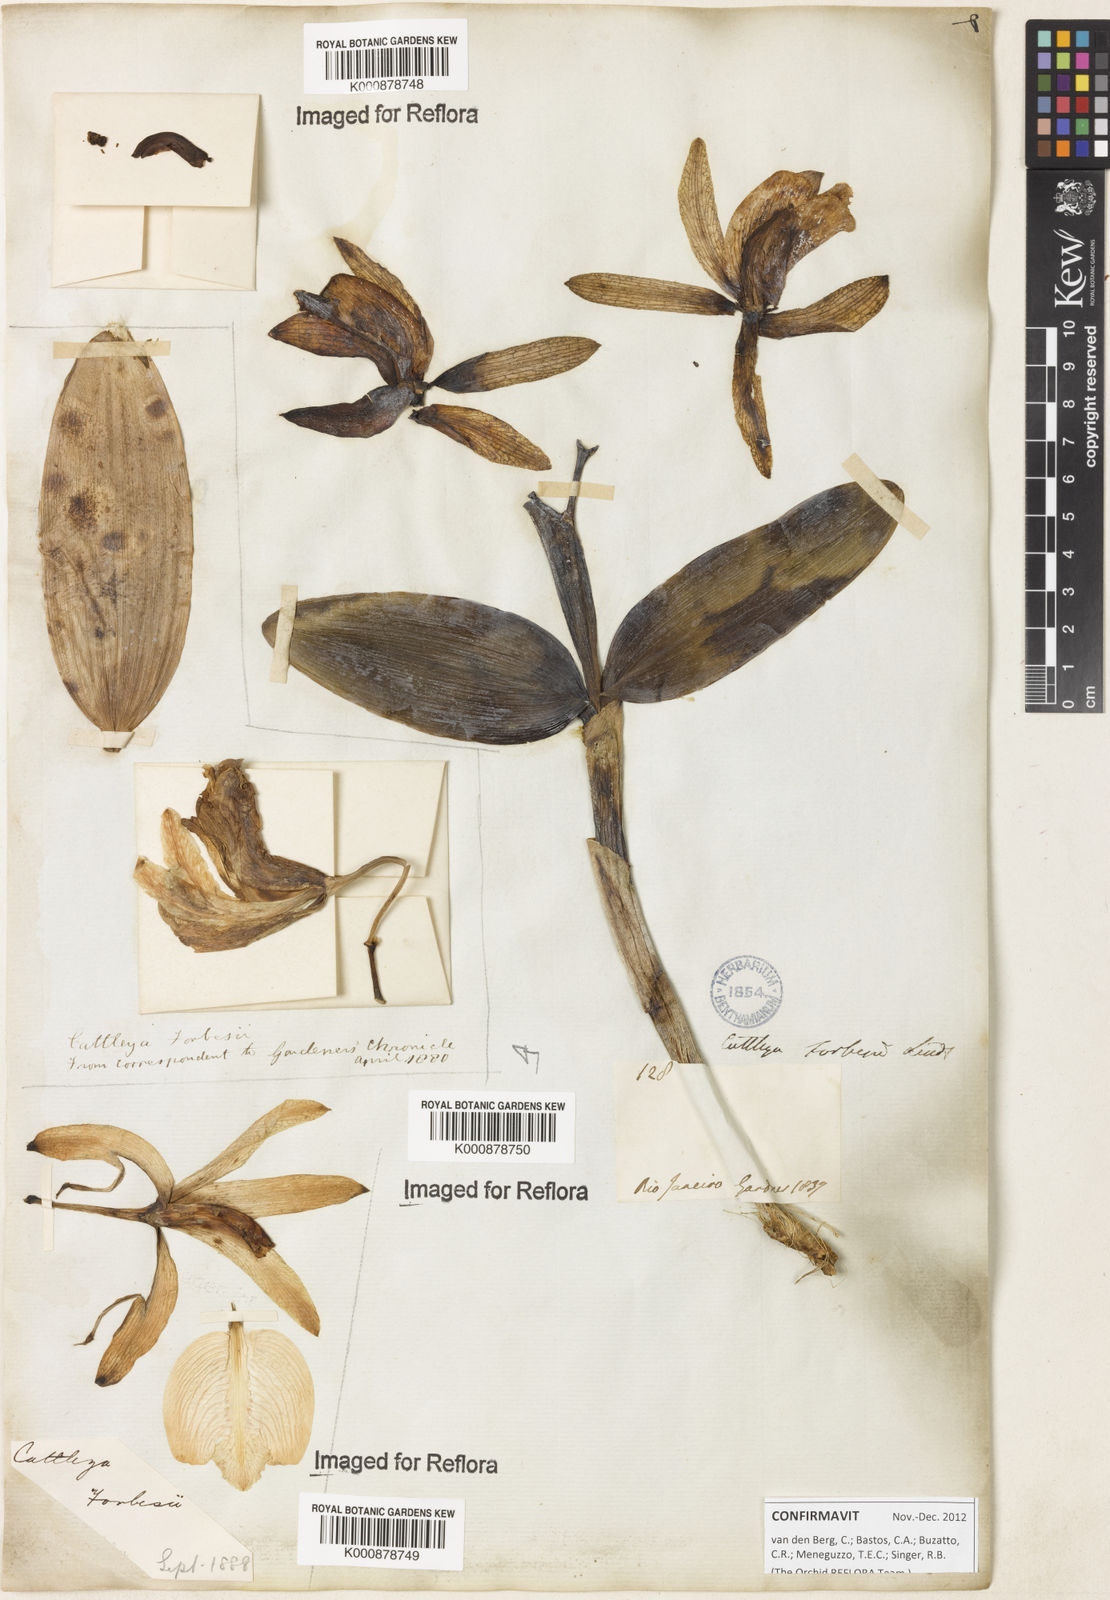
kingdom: Plantae
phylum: Tracheophyta
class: Liliopsida
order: Asparagales
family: Orchidaceae
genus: Cattleya
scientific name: Cattleya forbesii
